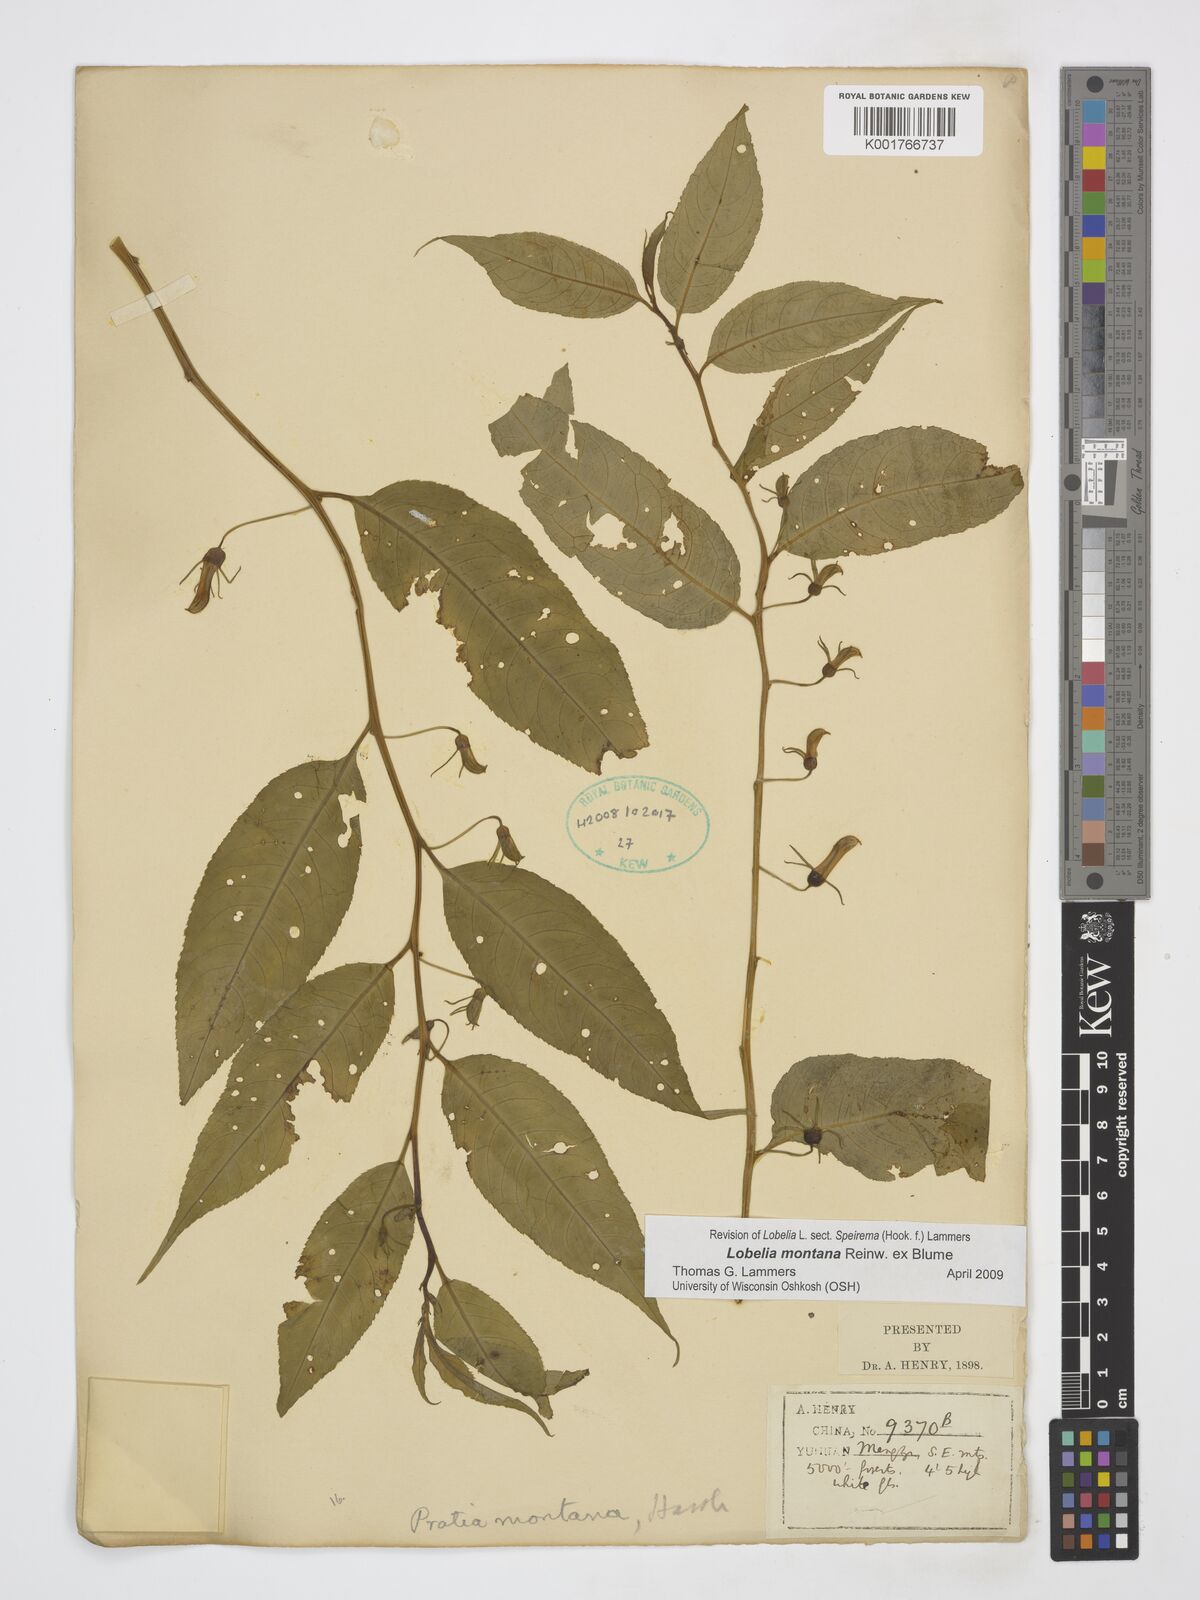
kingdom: Plantae
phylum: Tracheophyta
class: Magnoliopsida
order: Asterales
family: Campanulaceae
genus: Lobelia
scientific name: Lobelia montana
